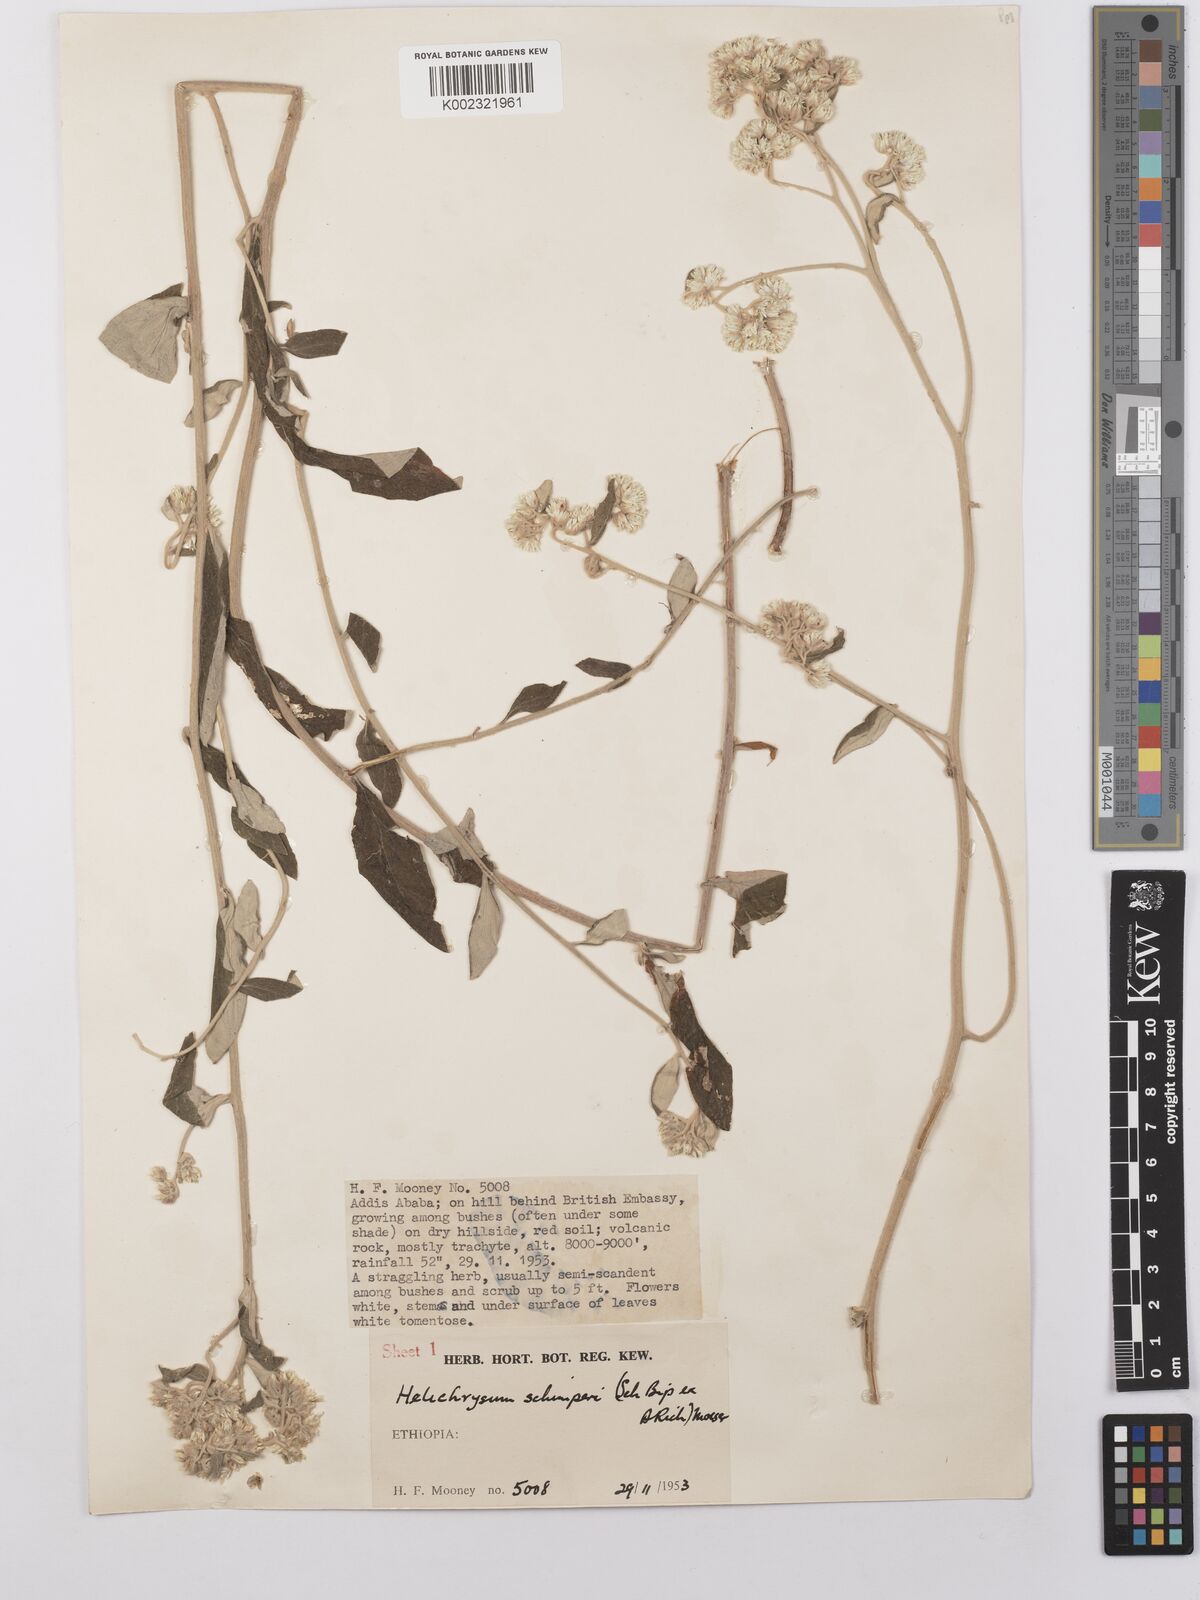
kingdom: Plantae
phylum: Tracheophyta
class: Magnoliopsida
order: Asterales
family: Asteraceae
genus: Helichrysum
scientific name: Helichrysum schimperi
